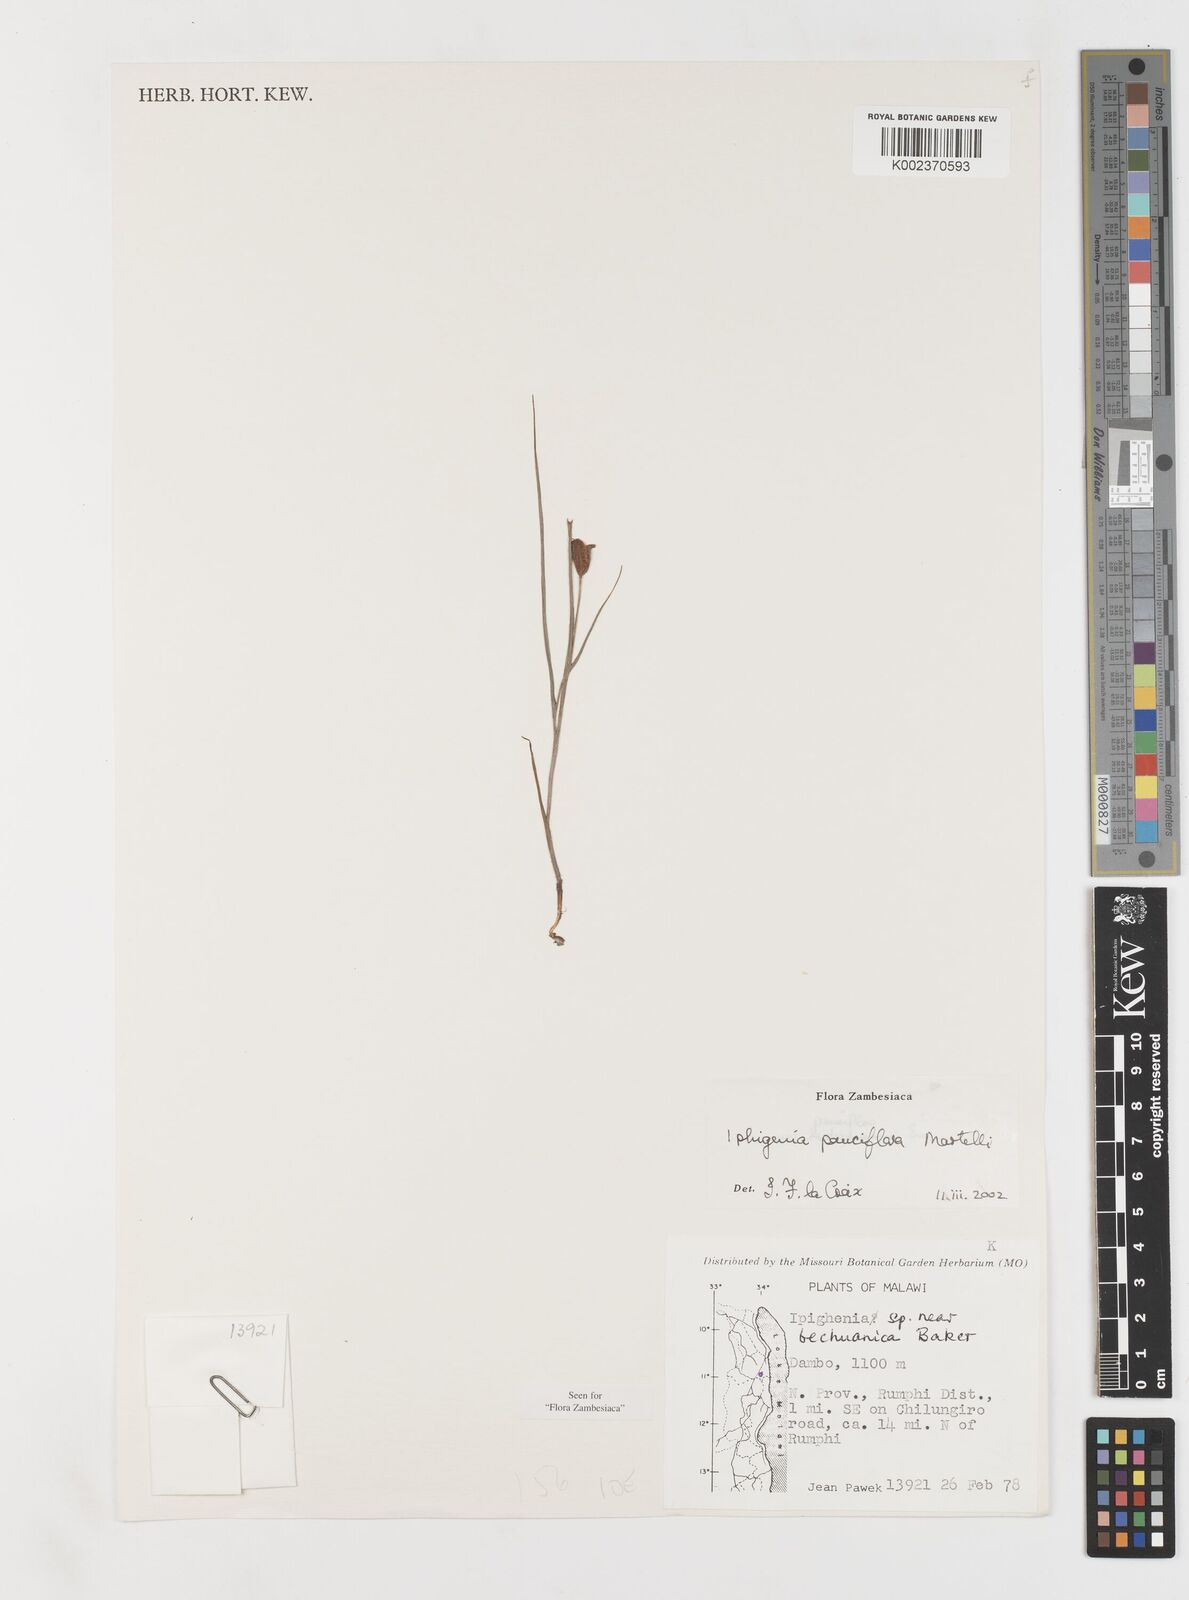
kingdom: Plantae
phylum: Tracheophyta
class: Liliopsida
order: Liliales
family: Colchicaceae
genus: Iphigenia
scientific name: Iphigenia oliveri
